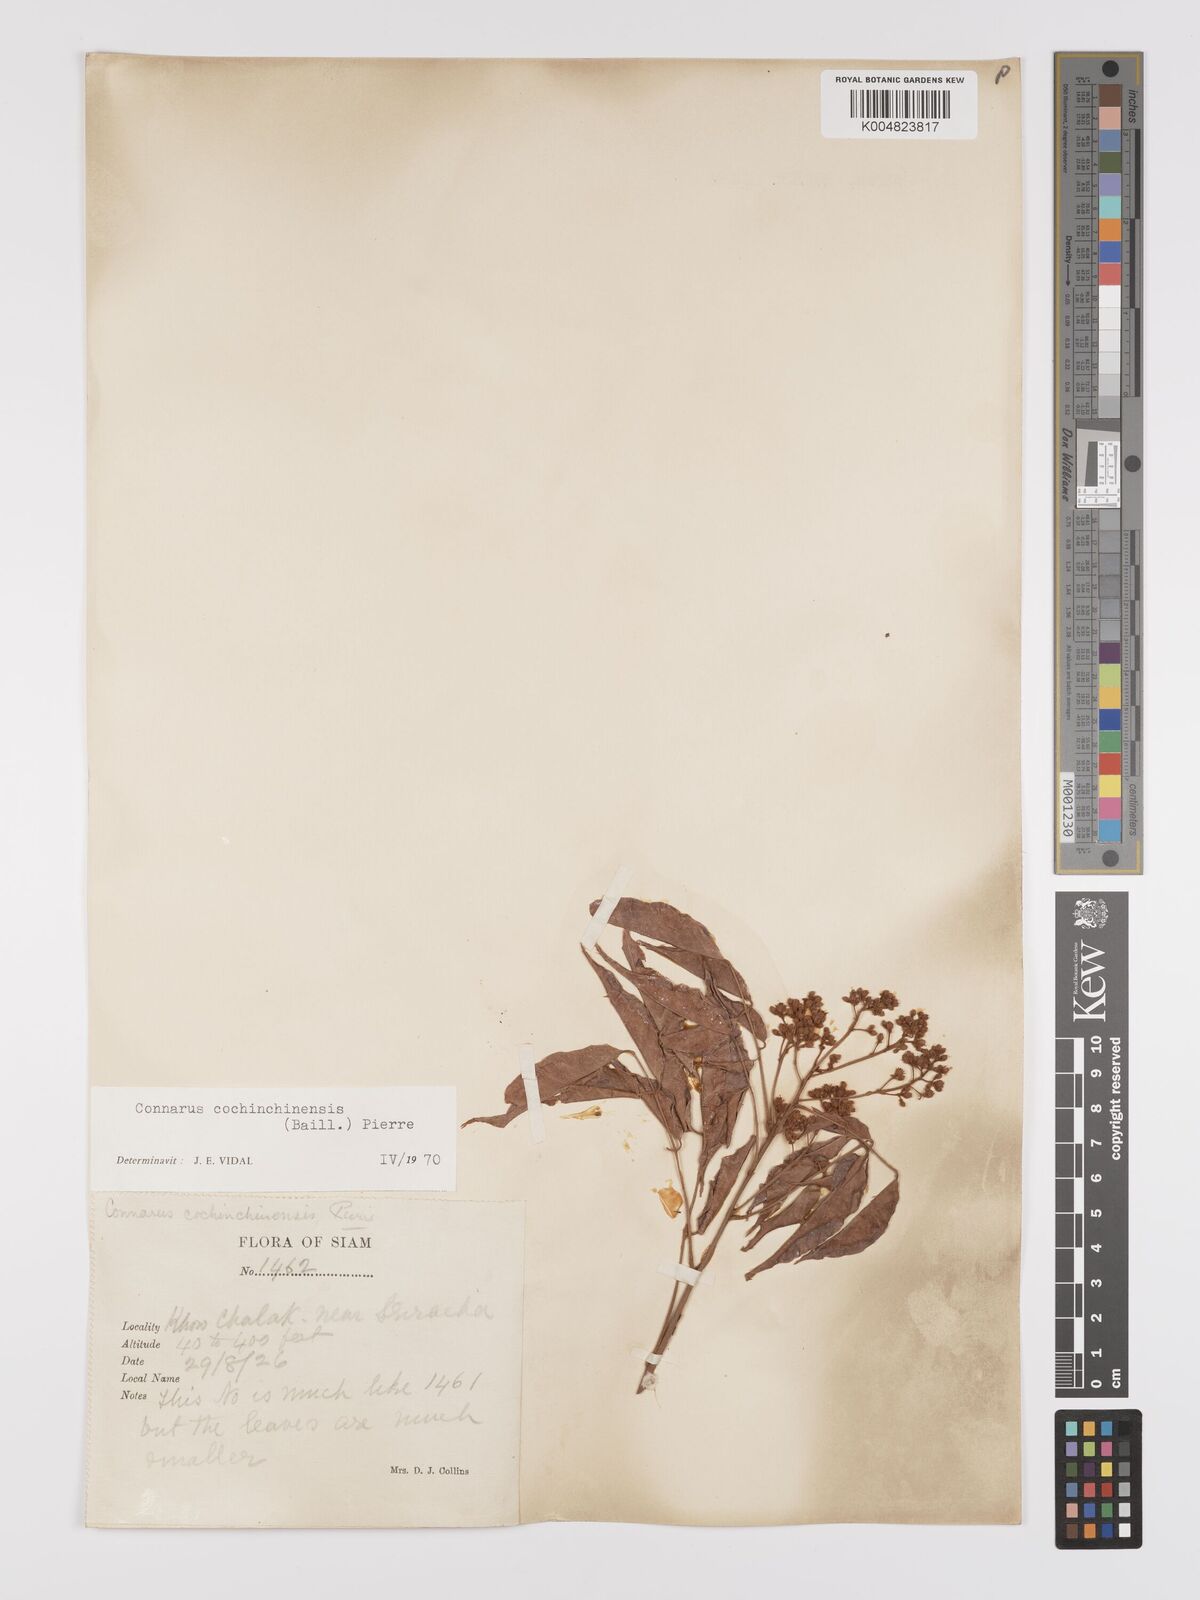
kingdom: Plantae
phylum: Tracheophyta
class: Magnoliopsida
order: Oxalidales
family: Connaraceae
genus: Connarus
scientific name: Connarus cochinchinensis
